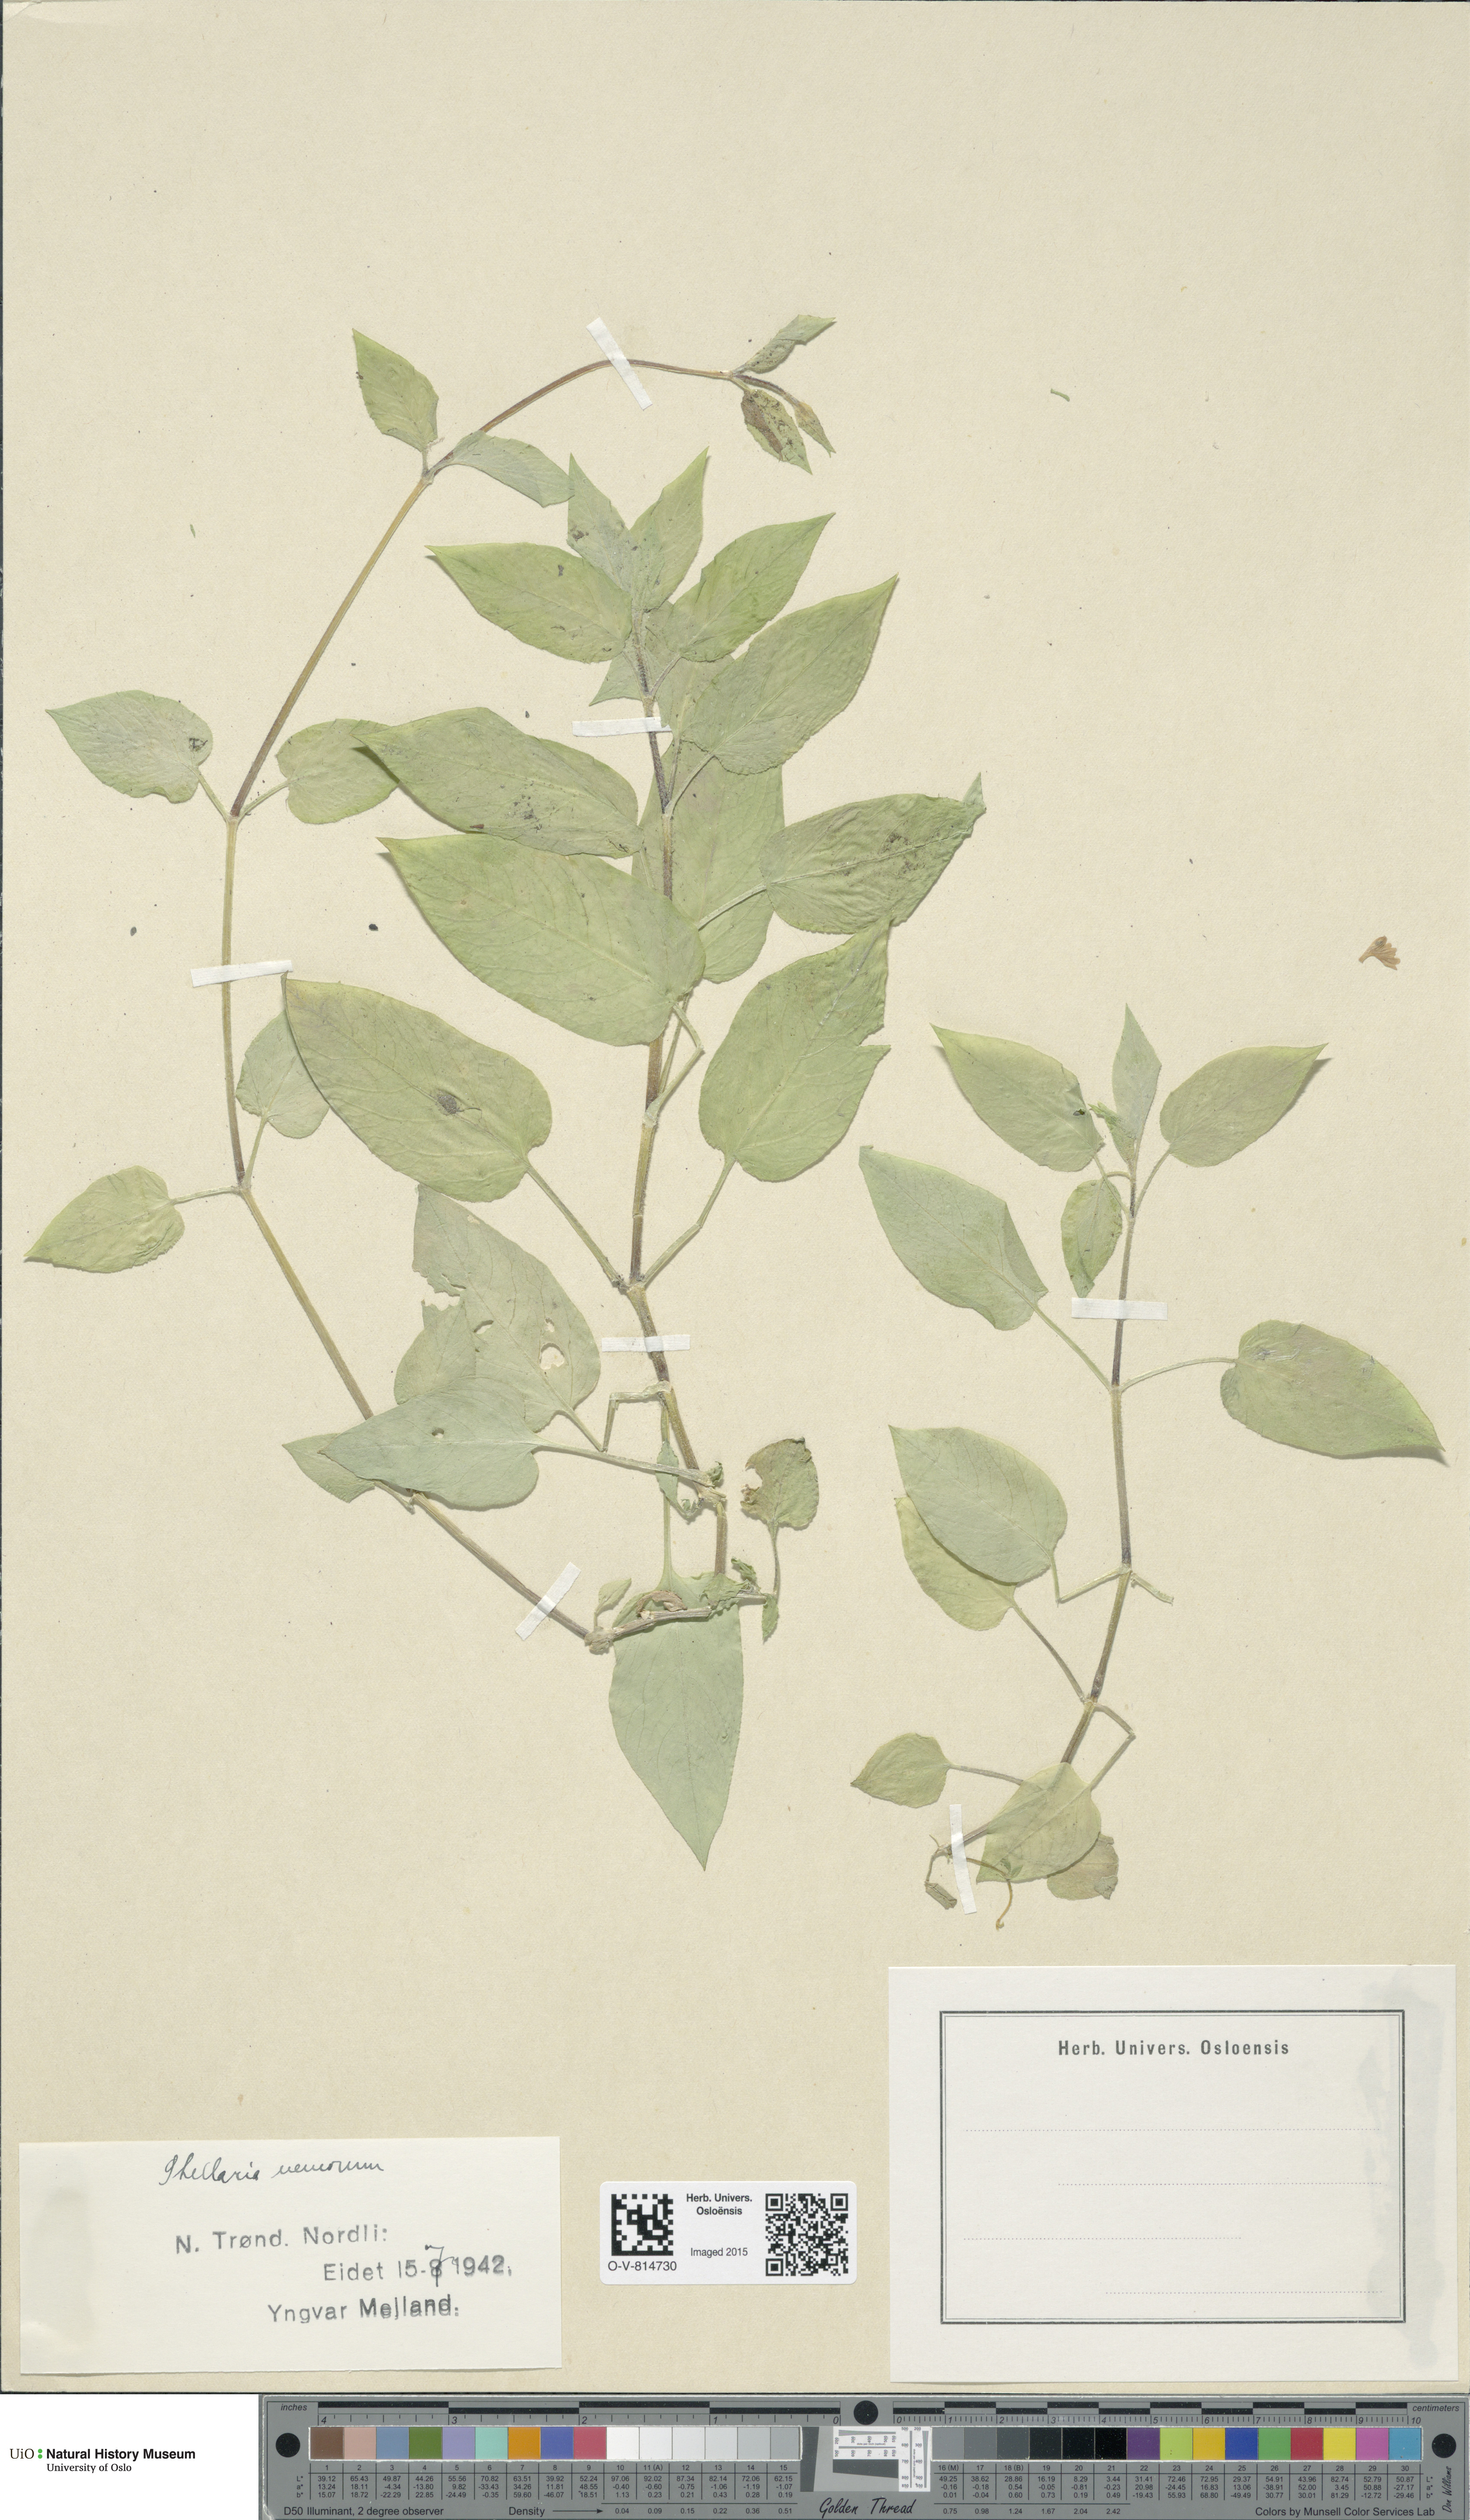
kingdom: Plantae
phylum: Tracheophyta
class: Magnoliopsida
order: Caryophyllales
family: Caryophyllaceae
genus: Stellaria
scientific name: Stellaria nemorum
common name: Wood stitchwort
